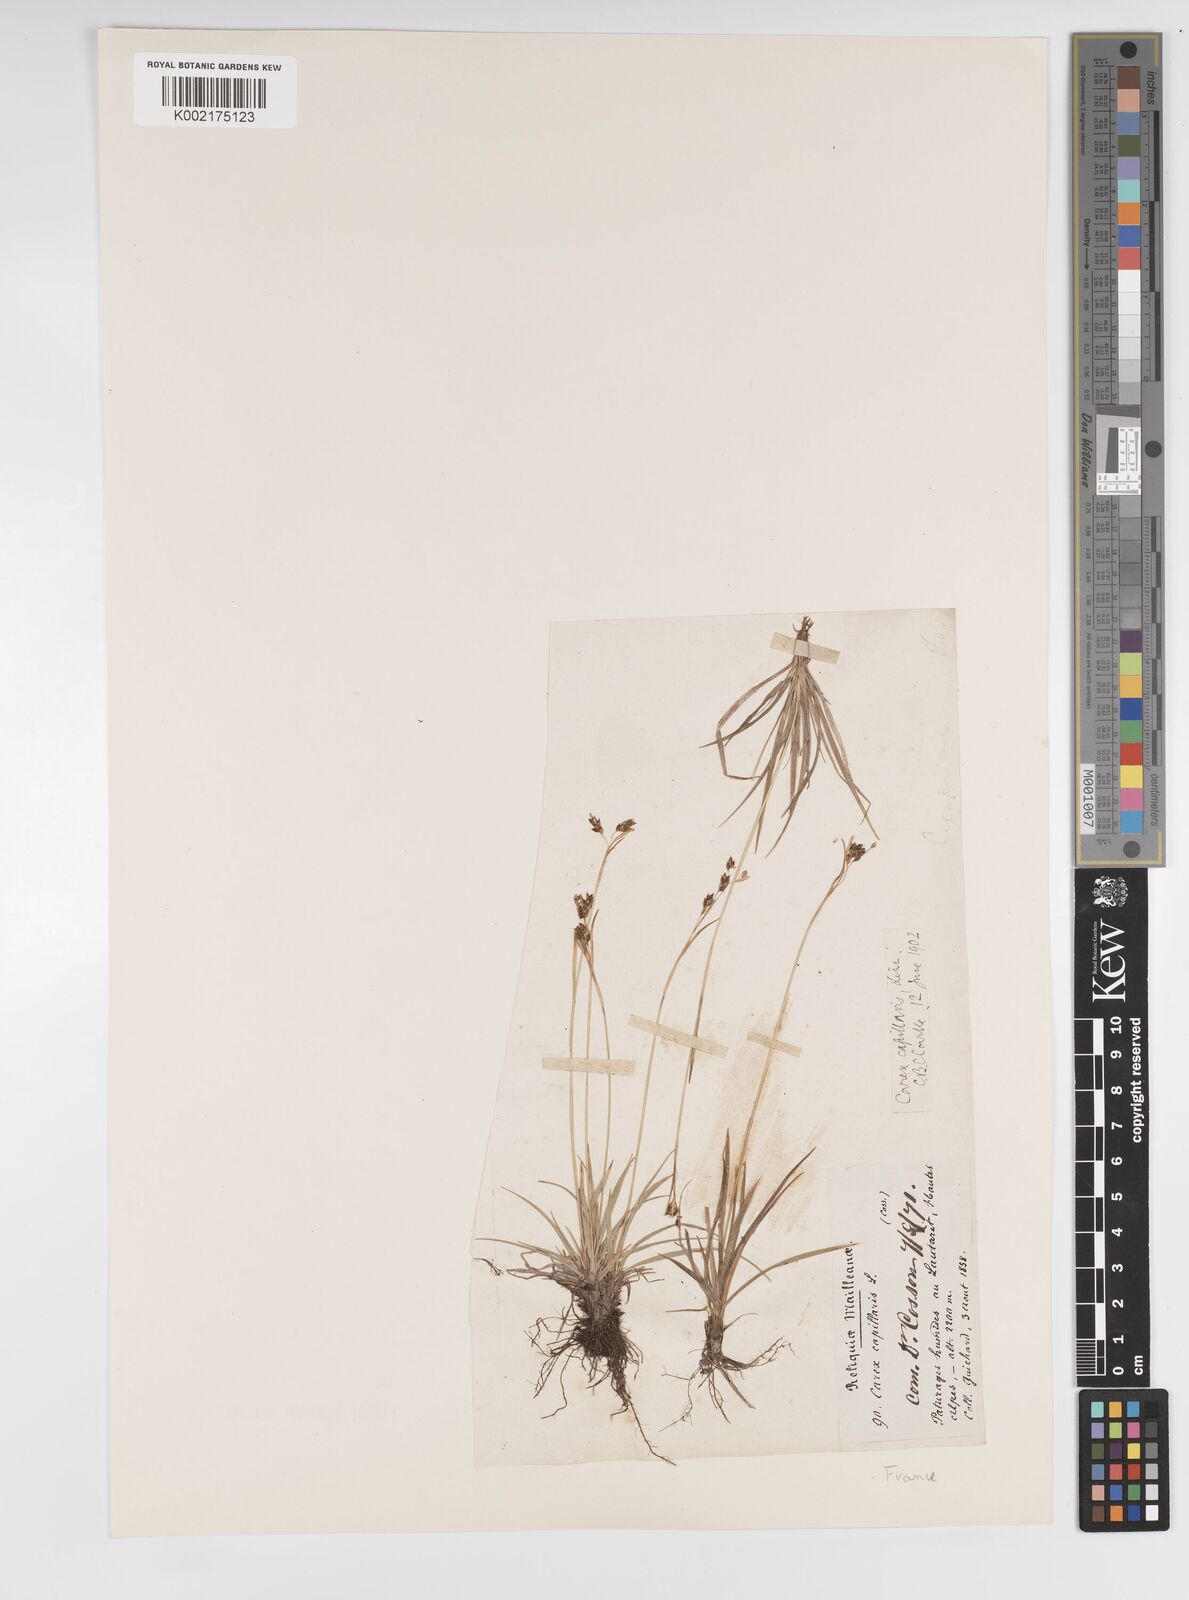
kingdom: Plantae
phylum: Tracheophyta
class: Liliopsida
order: Poales
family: Cyperaceae
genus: Carex
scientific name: Carex capillaris
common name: Hair sedge
